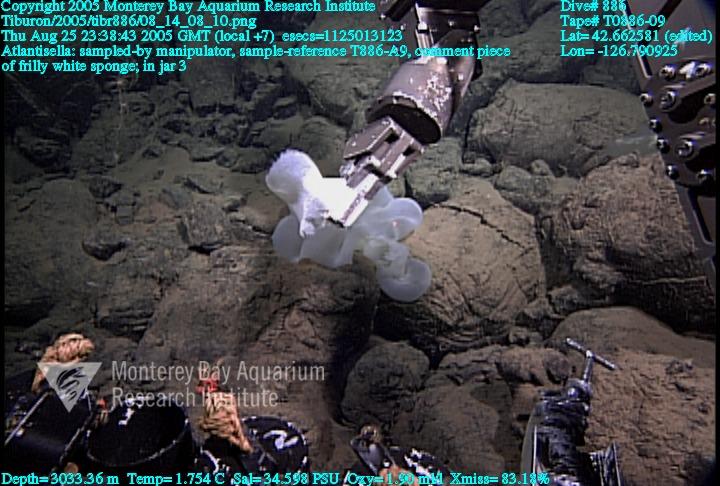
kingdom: Animalia
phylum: Porifera
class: Hexactinellida
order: Lyssacinosida
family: Euplectellidae
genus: Atlantisella
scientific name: Atlantisella
